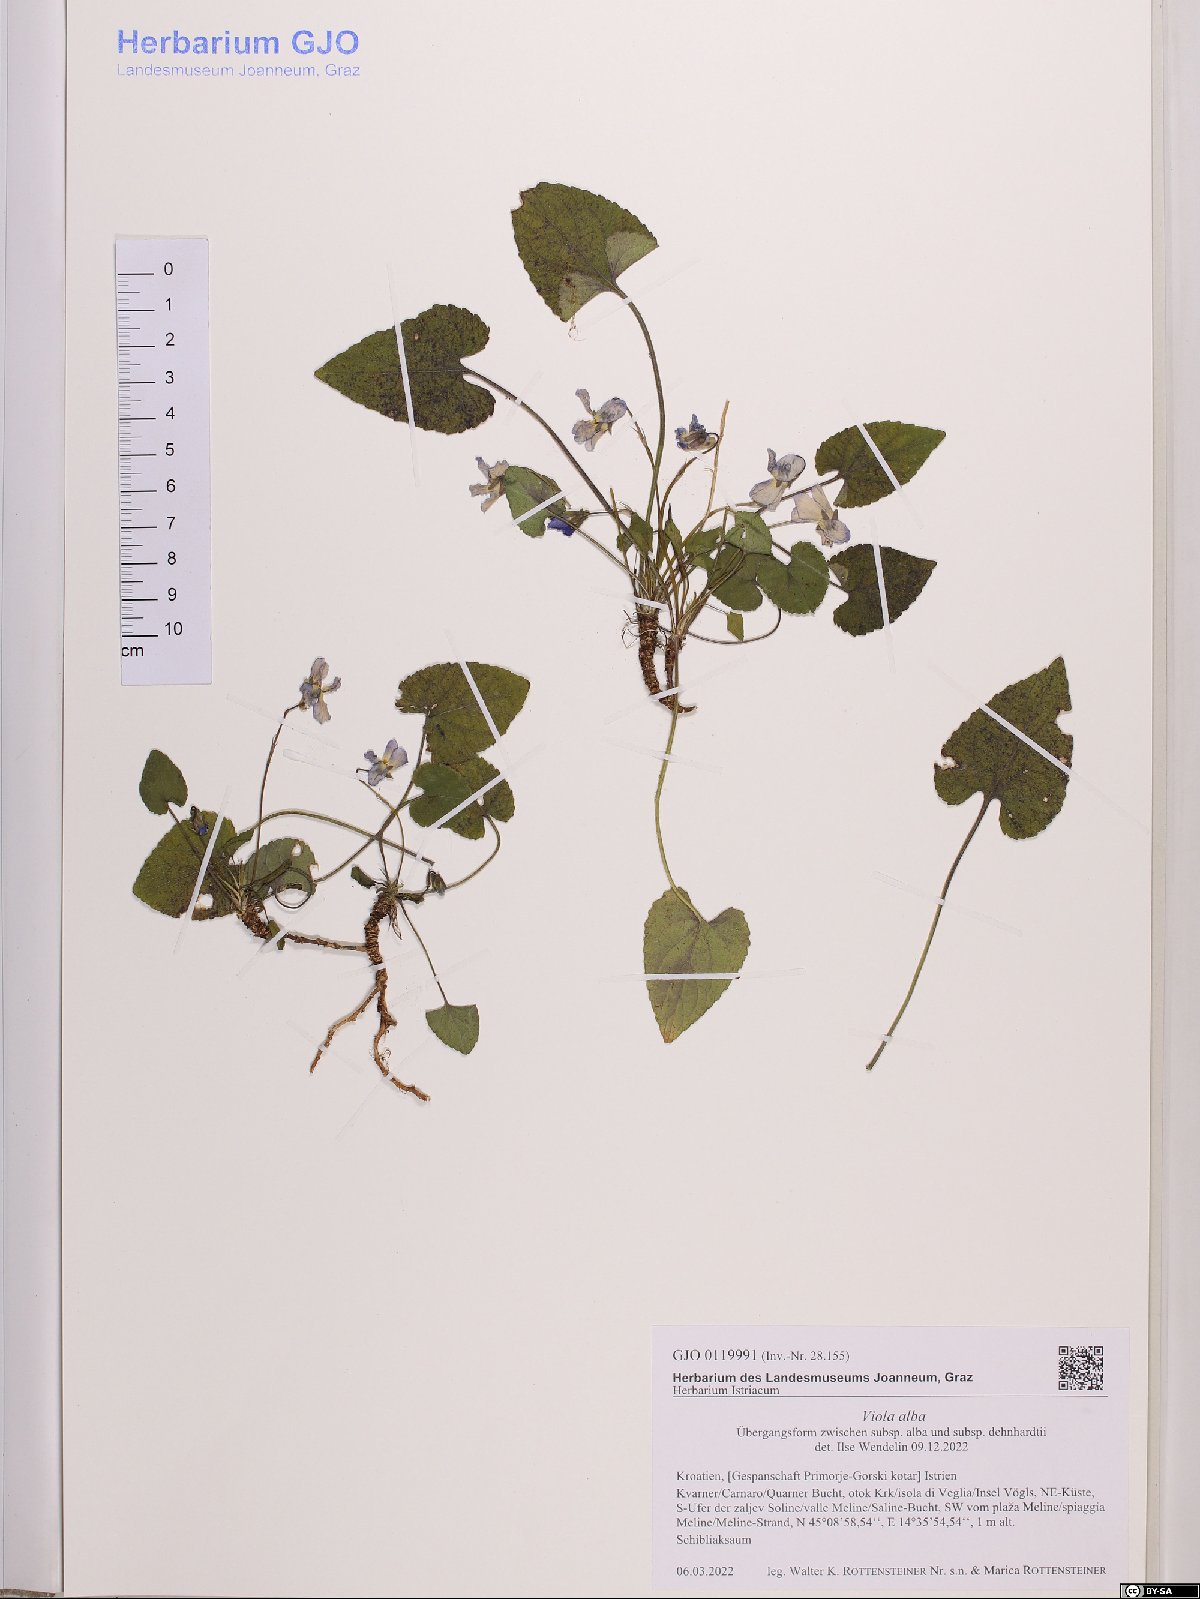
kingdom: Plantae
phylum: Tracheophyta
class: Magnoliopsida
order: Malpighiales
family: Violaceae
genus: Viola
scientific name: Viola alba
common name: White violet
